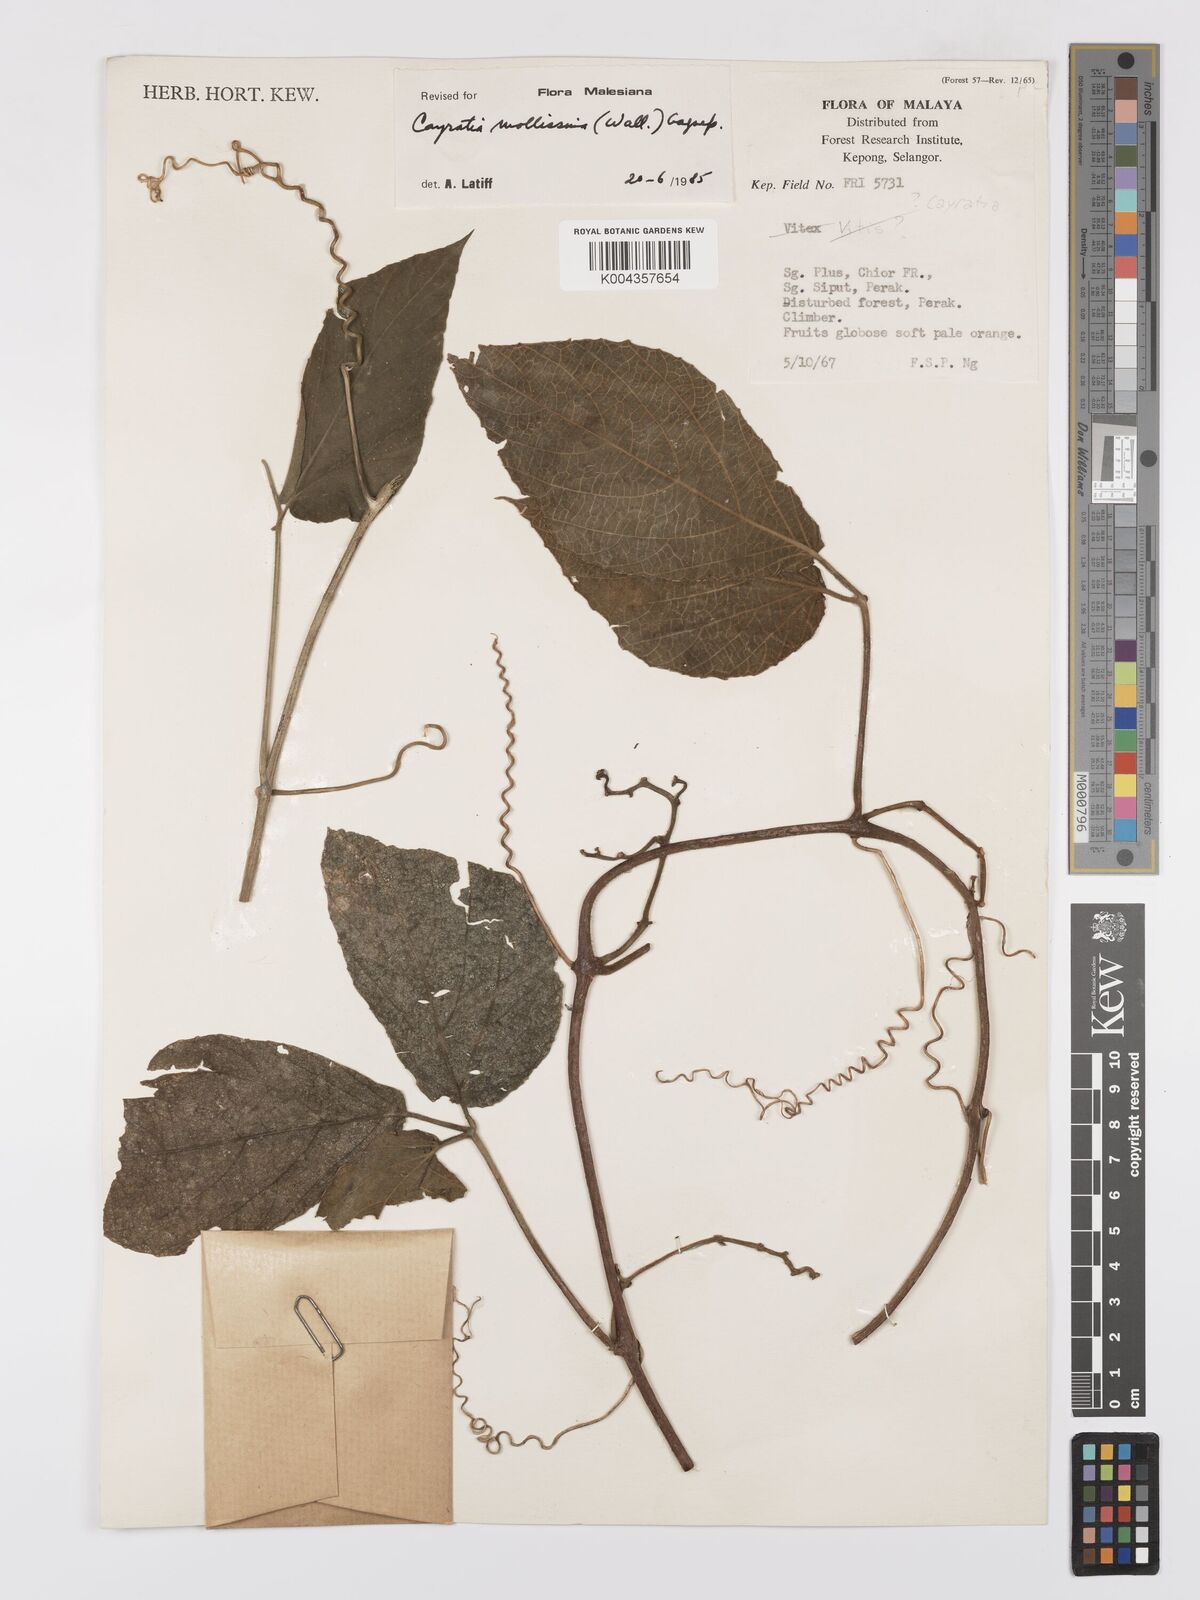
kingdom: Plantae
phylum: Tracheophyta
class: Magnoliopsida
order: Vitales
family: Vitaceae
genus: Cayratia
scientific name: Cayratia mollissima
